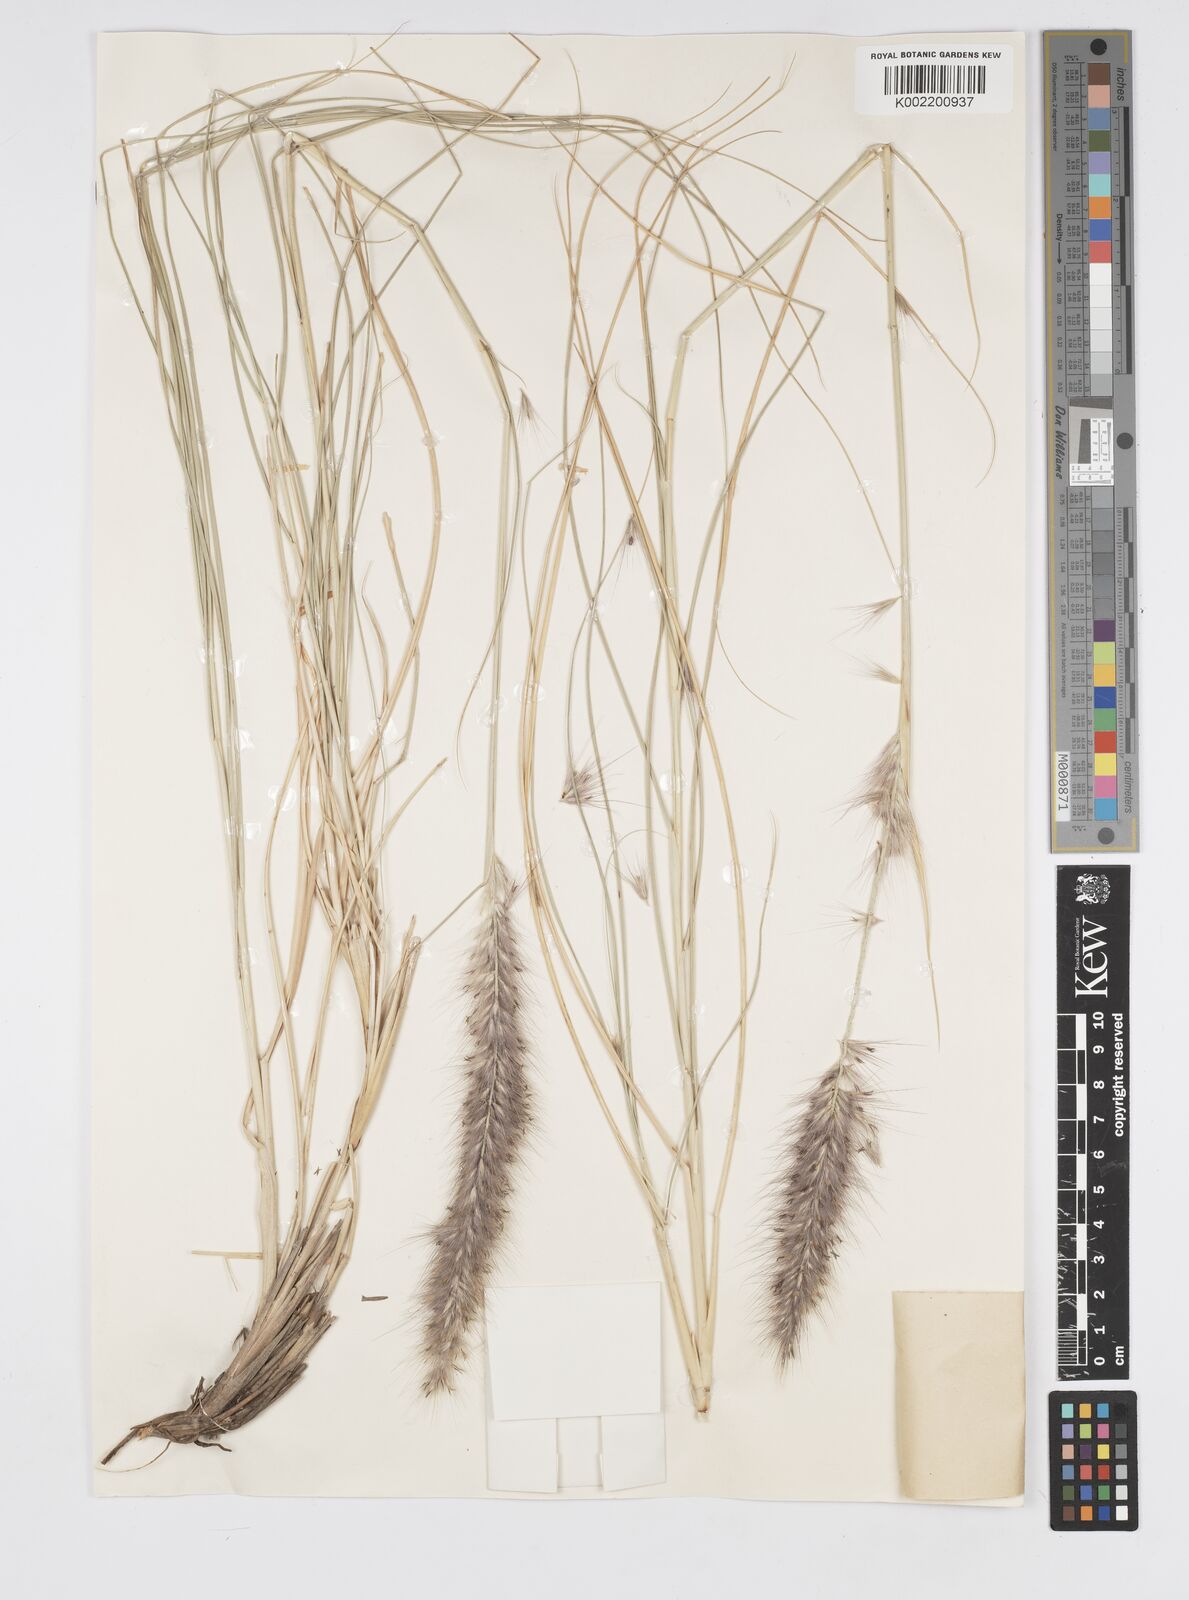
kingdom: Plantae
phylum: Tracheophyta
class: Liliopsida
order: Poales
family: Poaceae
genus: Cenchrus
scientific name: Cenchrus setaceus
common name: Crimson fountaingrass
